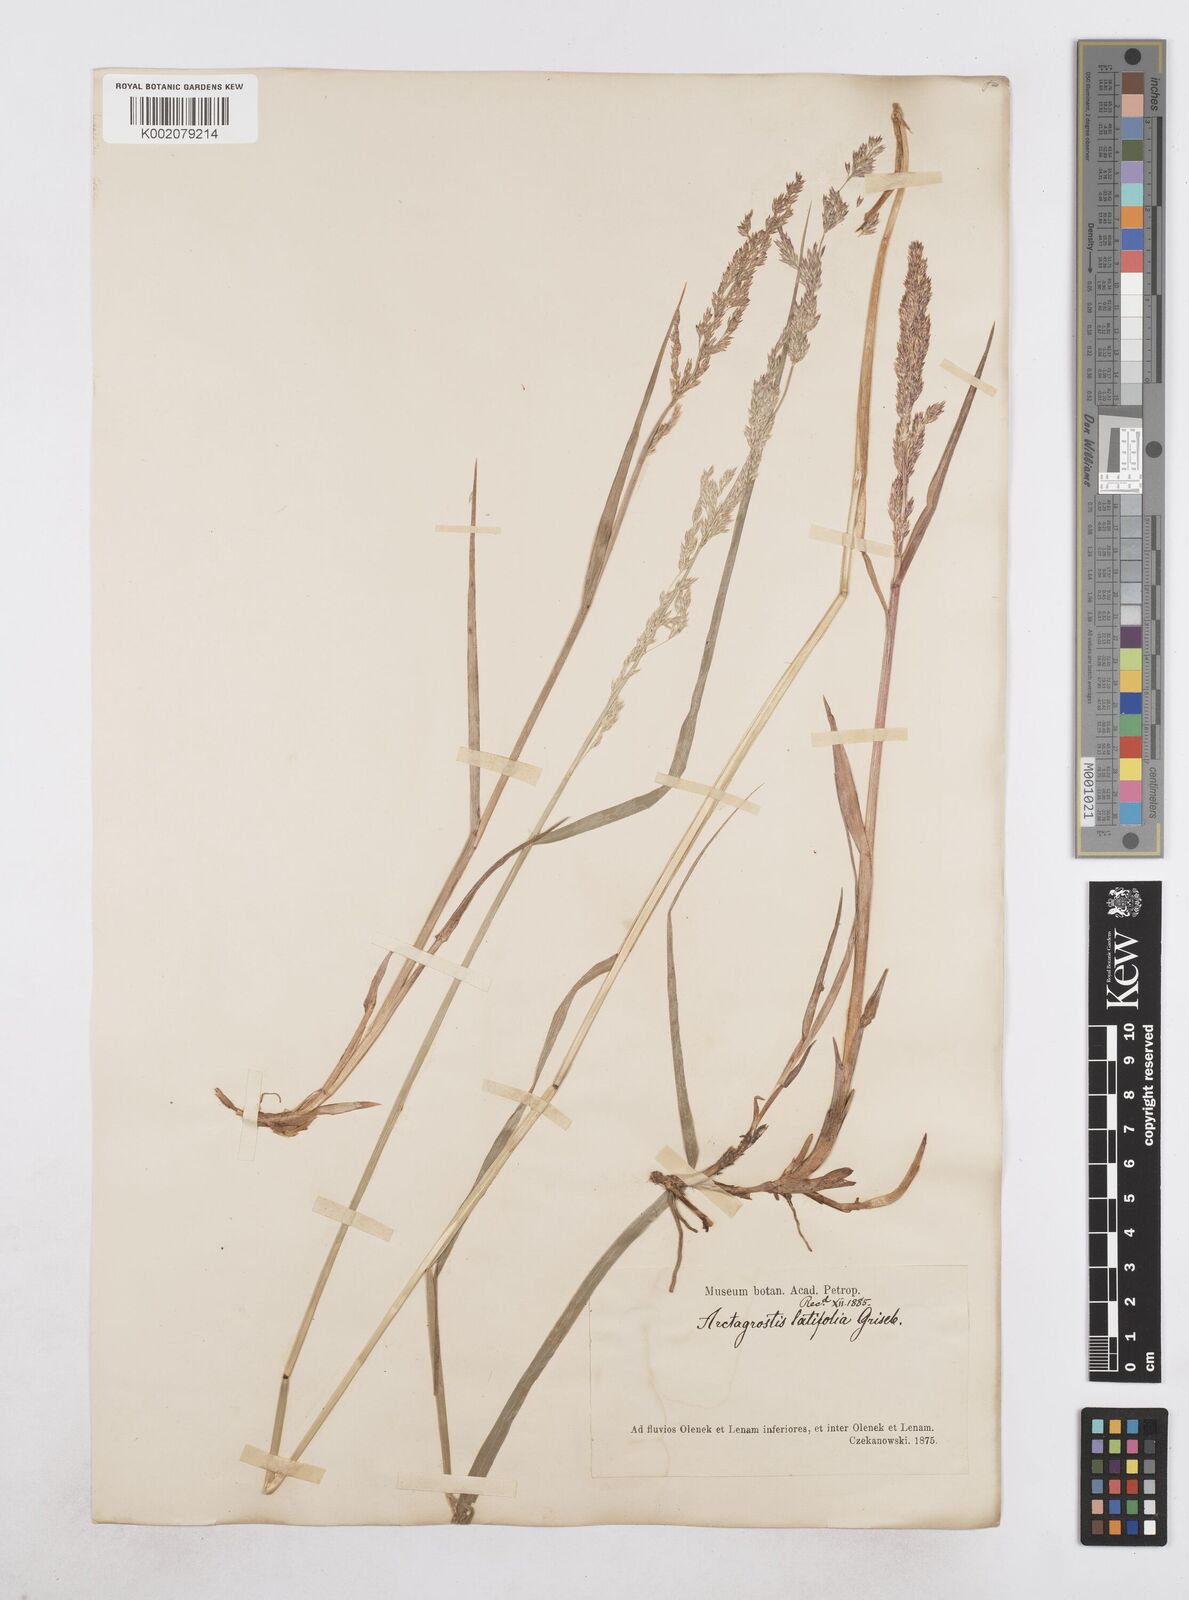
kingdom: Plantae
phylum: Tracheophyta
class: Liliopsida
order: Poales
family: Poaceae
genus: Arctagrostis
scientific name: Arctagrostis latifolia
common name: Arctic grass
